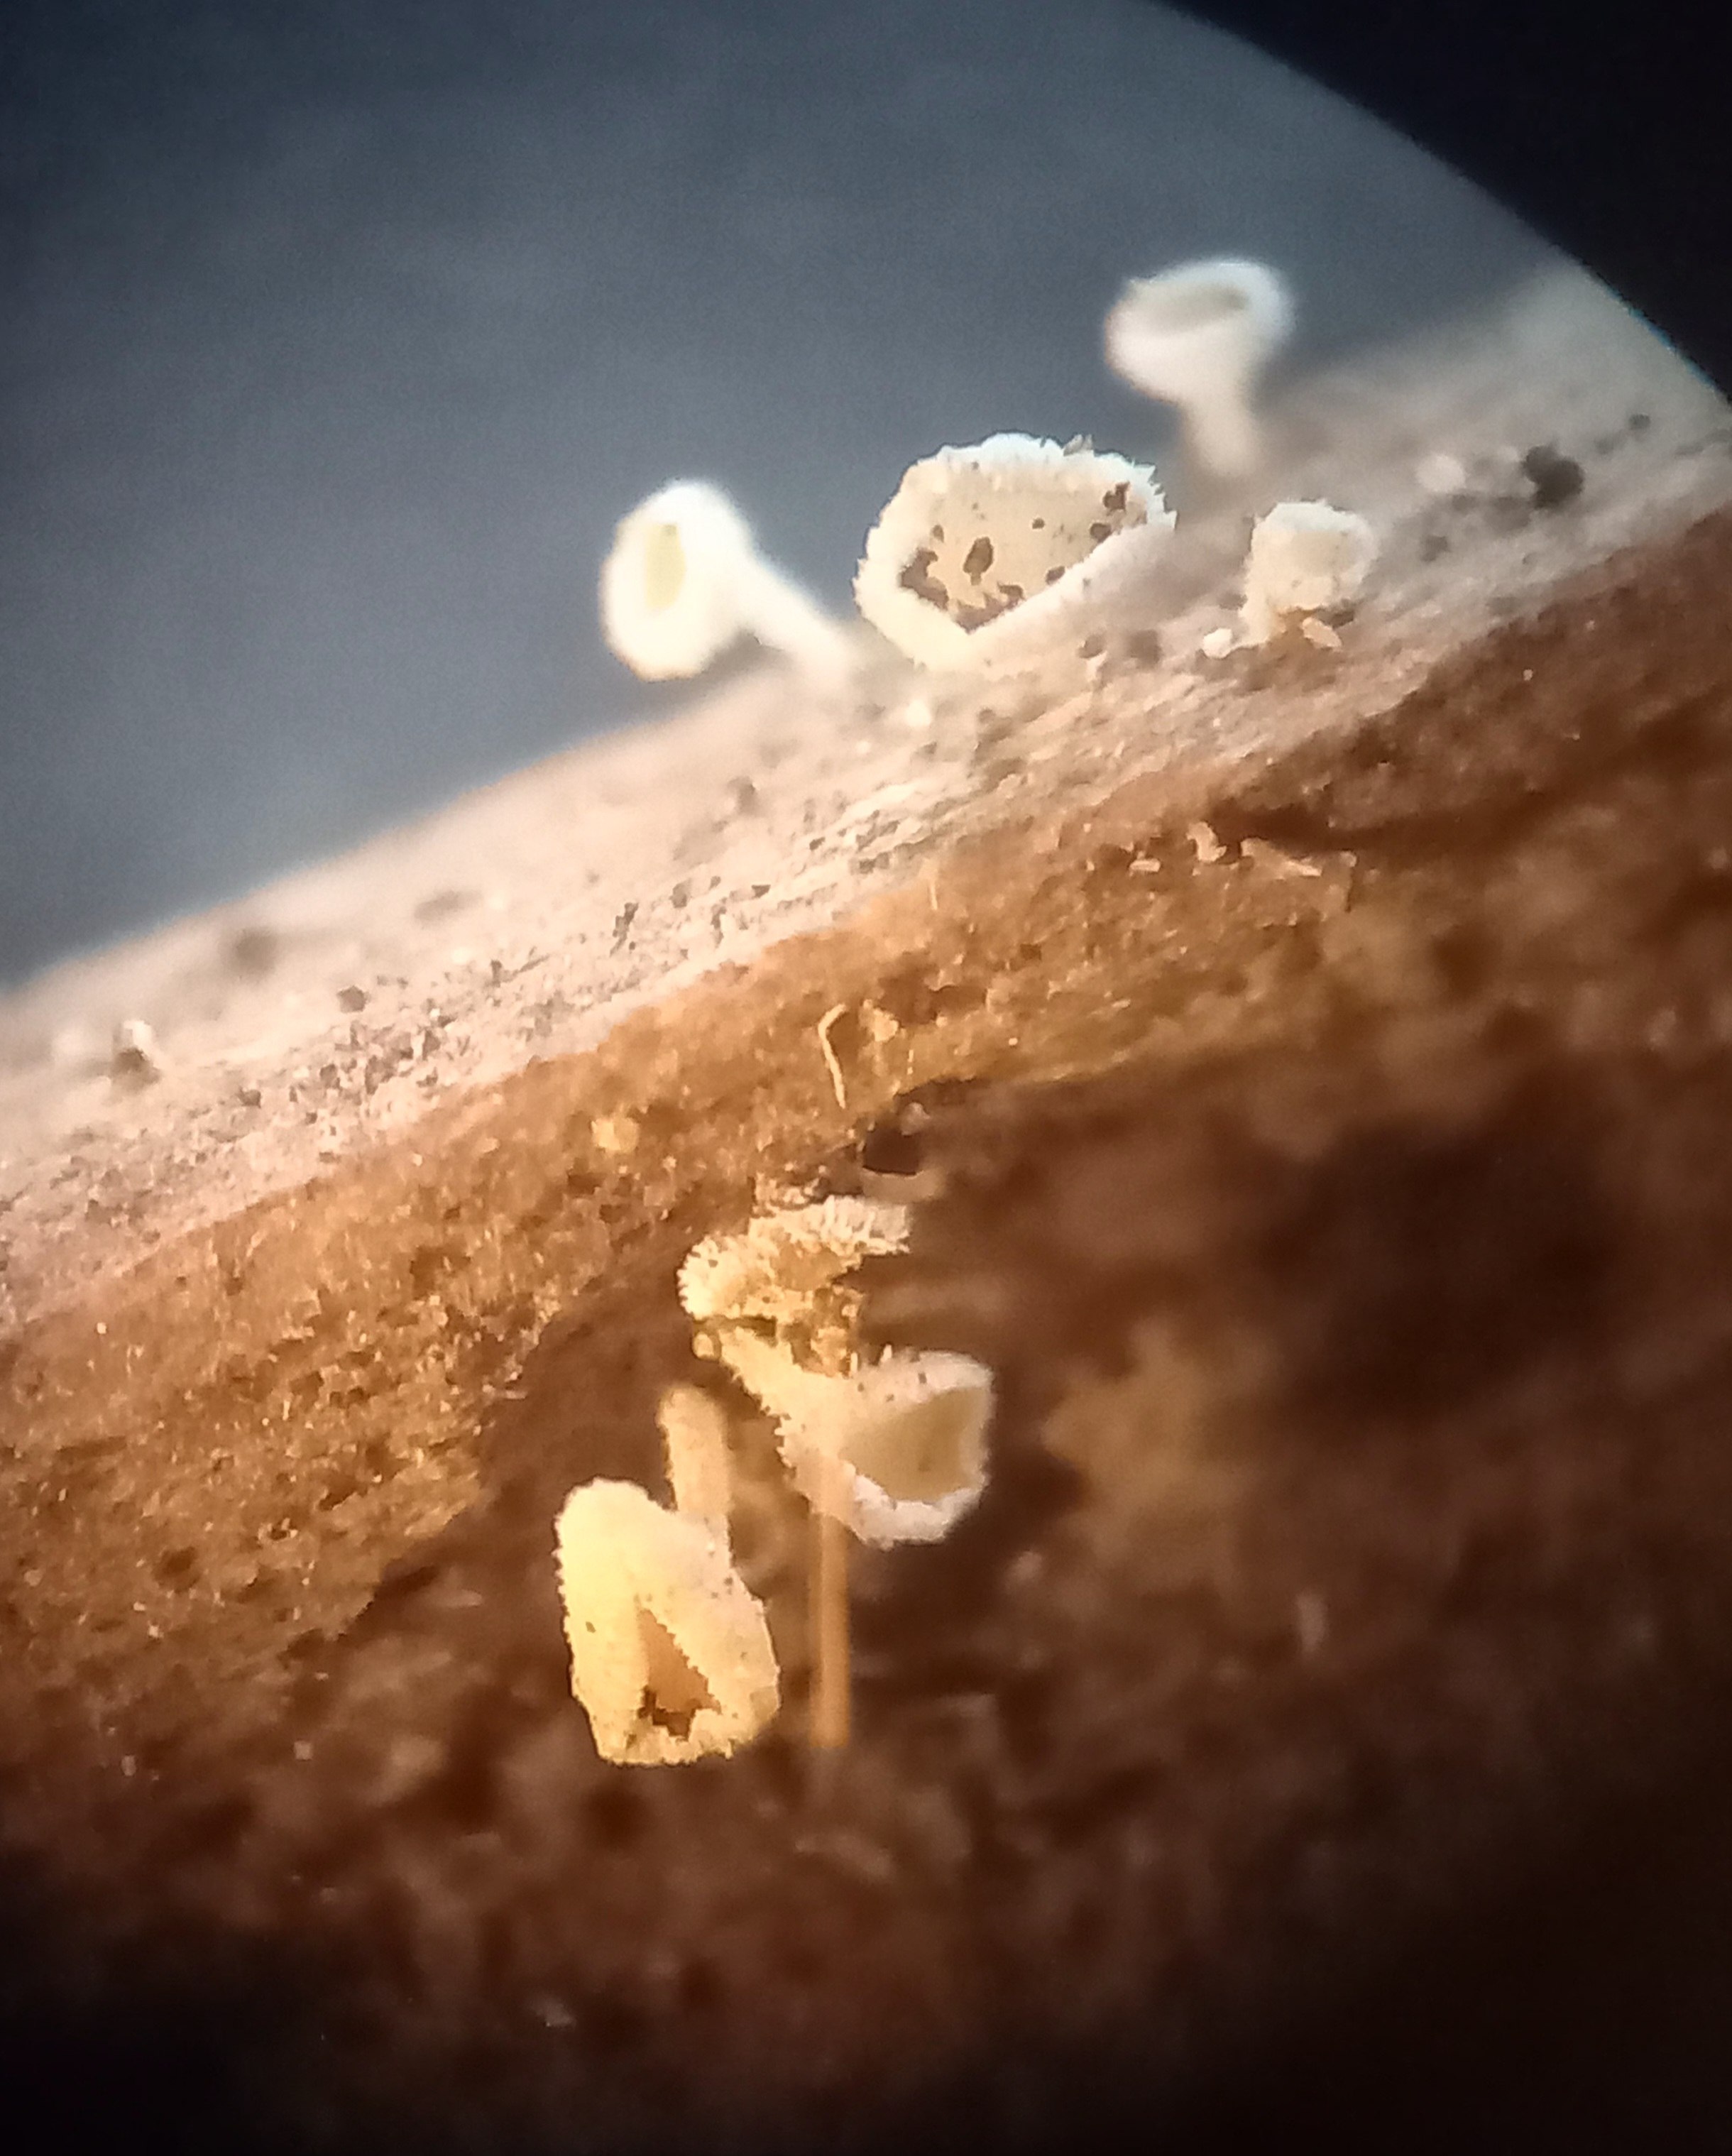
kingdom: Fungi
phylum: Ascomycota
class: Leotiomycetes
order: Helotiales
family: Lachnaceae
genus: Lachnum
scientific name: Lachnum
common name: frynseskive
